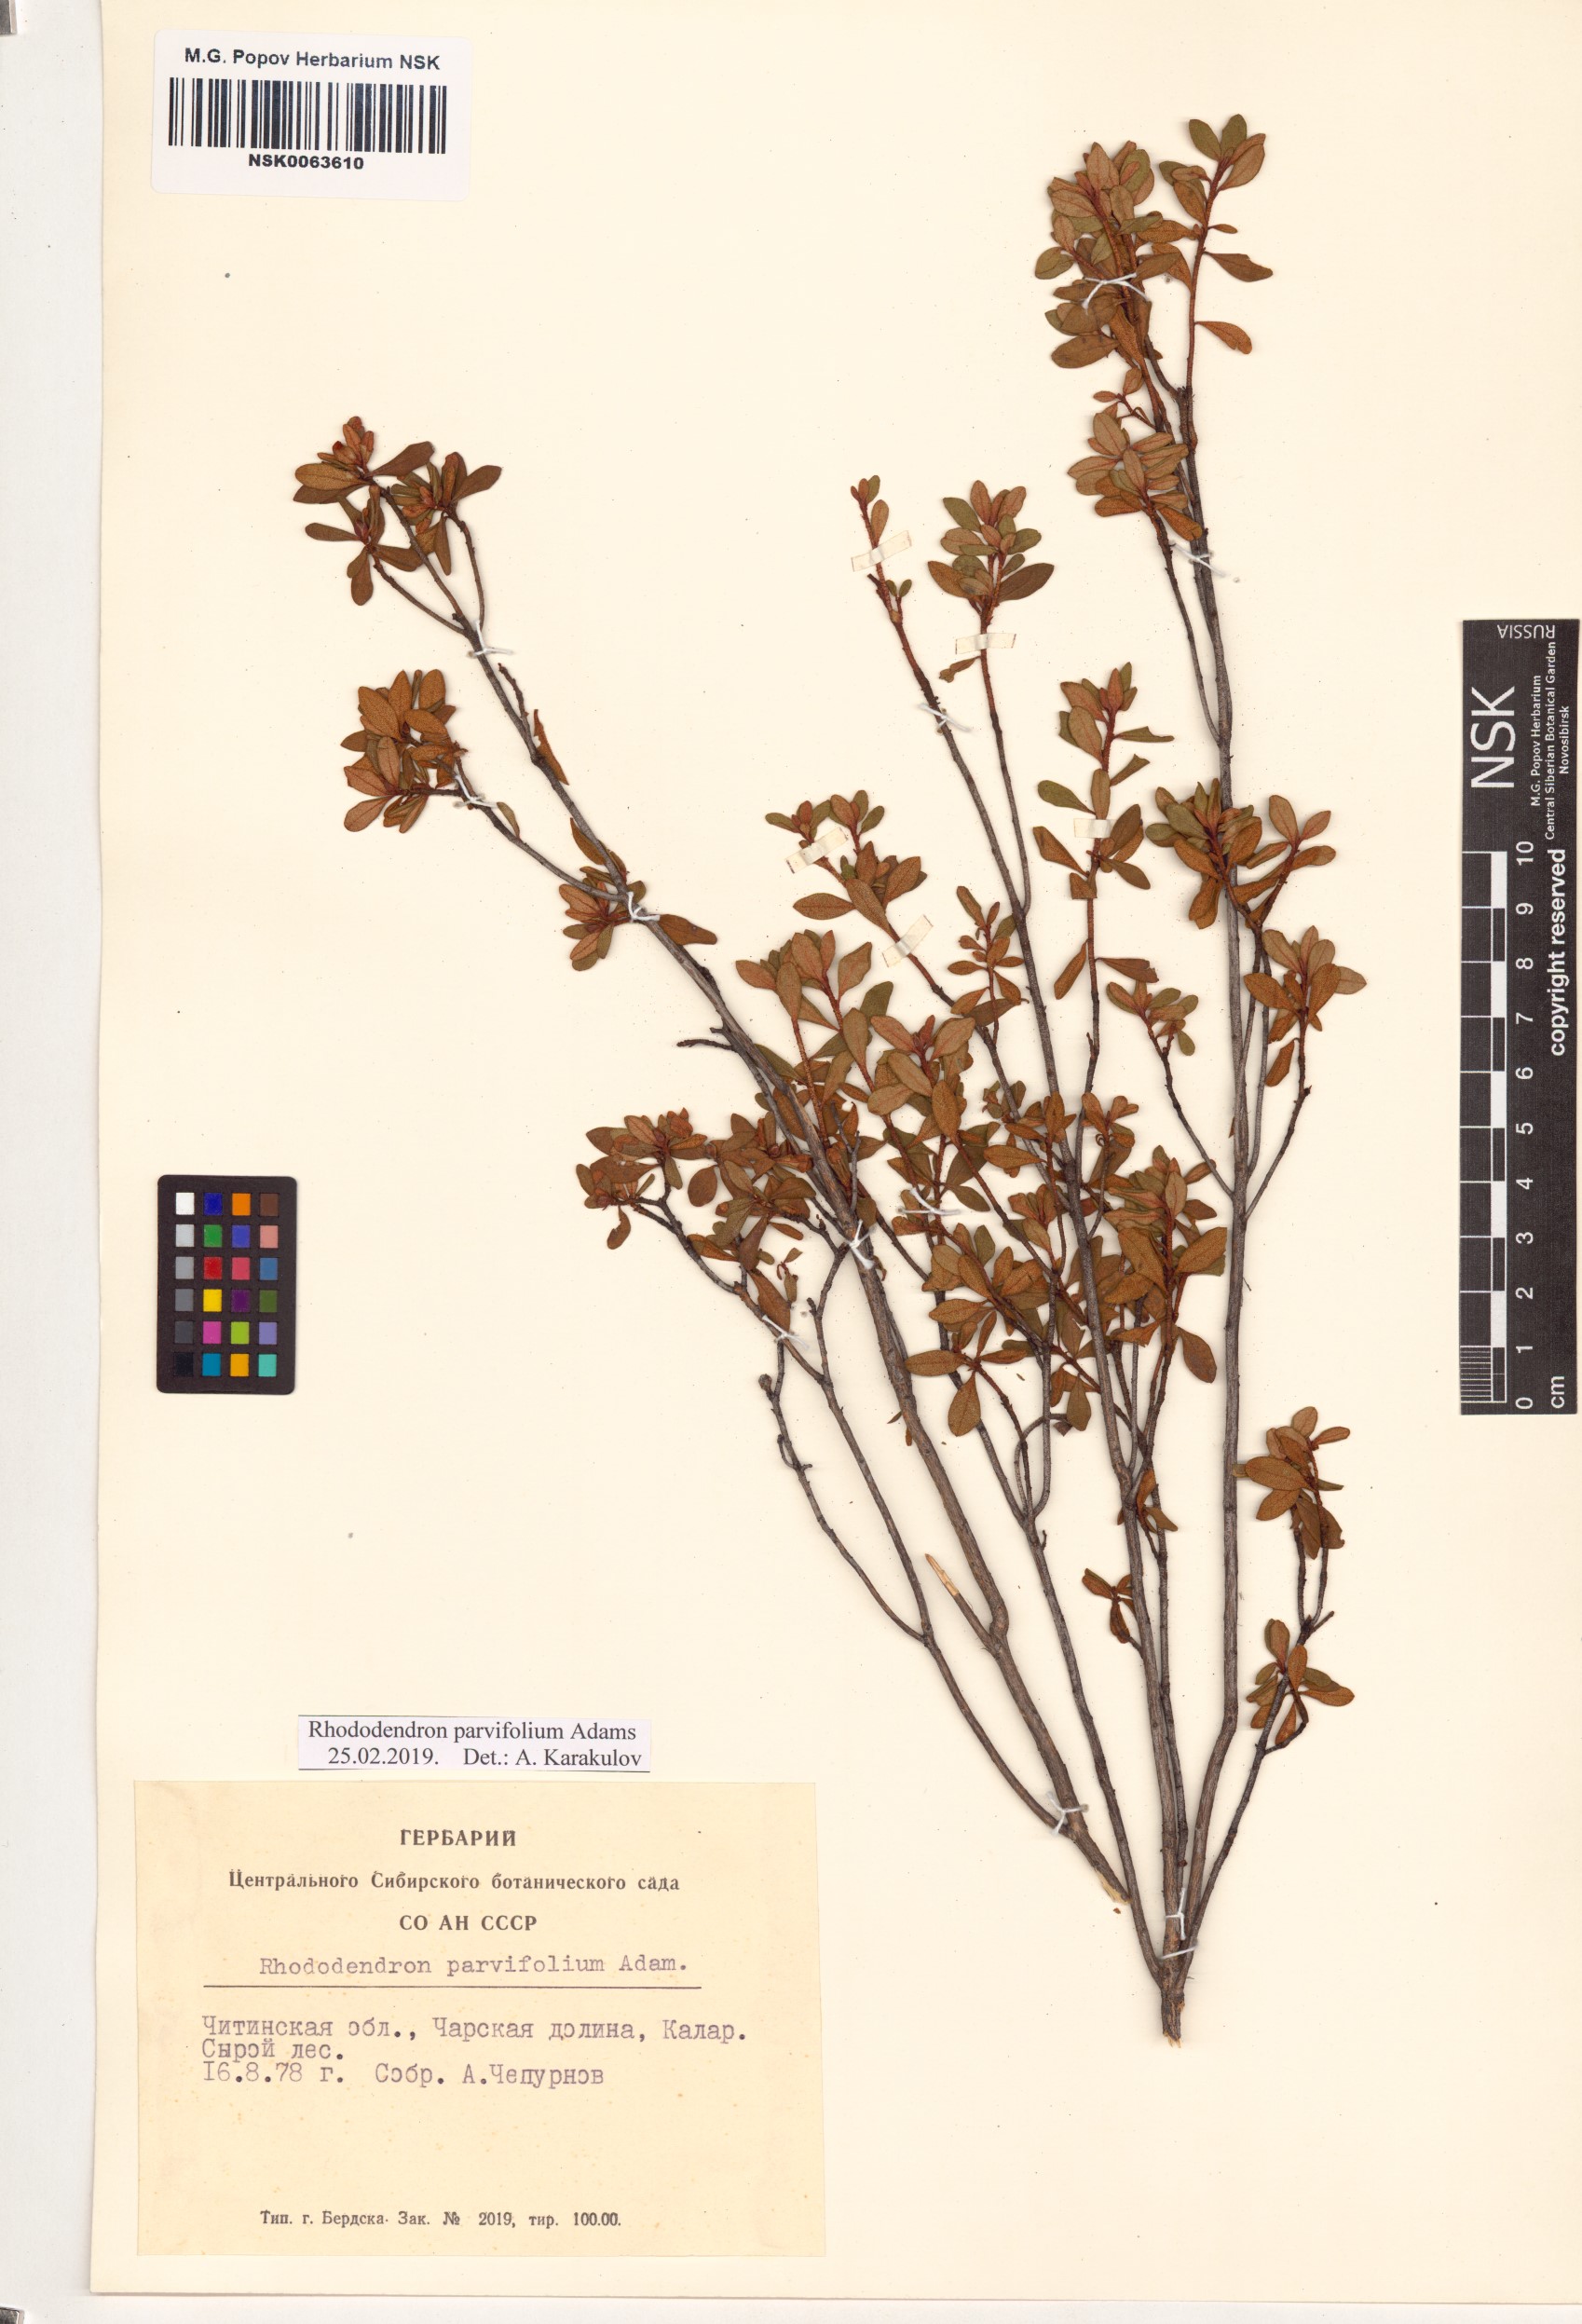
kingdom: Plantae
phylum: Tracheophyta
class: Magnoliopsida
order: Ericales
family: Ericaceae
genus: Rhododendron
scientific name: Rhododendron parvifolium
